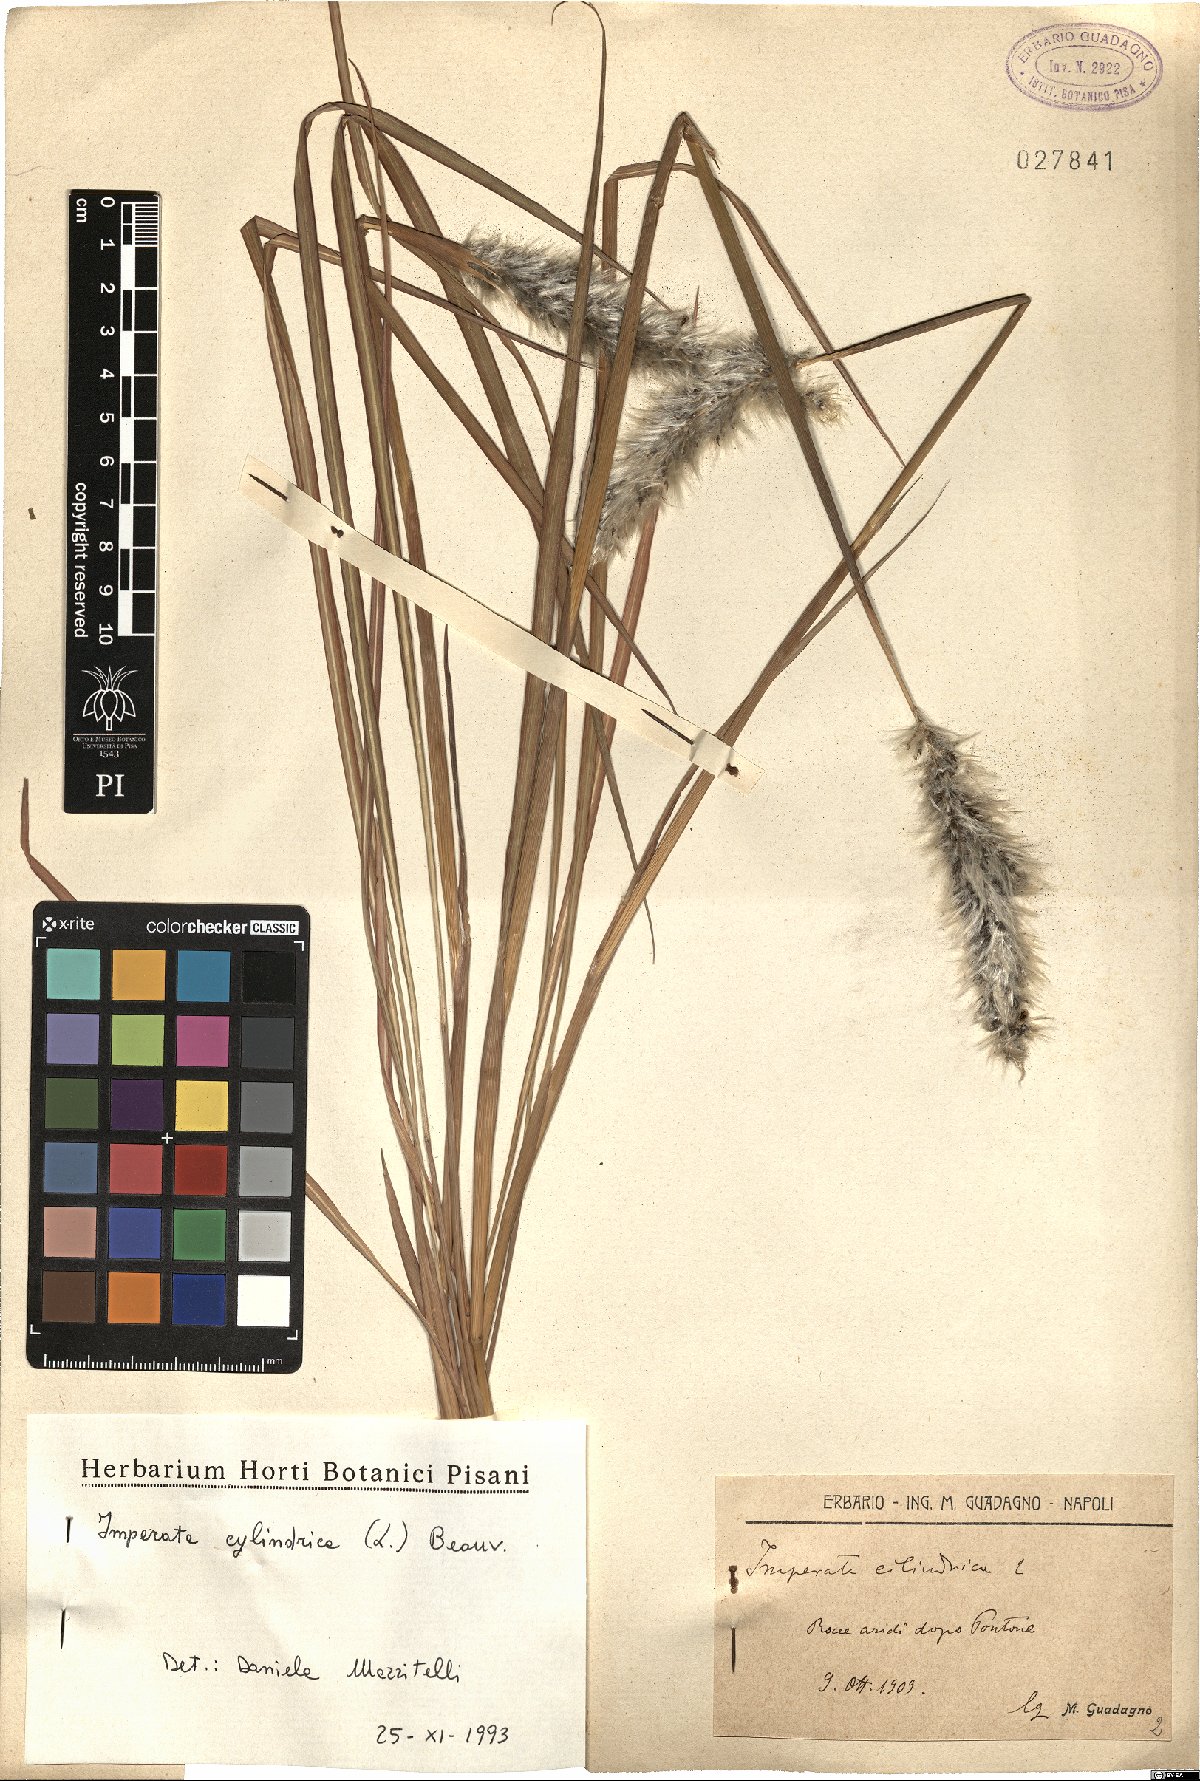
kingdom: Plantae
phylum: Tracheophyta
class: Liliopsida
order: Poales
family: Poaceae
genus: Imperata
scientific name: Imperata cylindrica
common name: Cogongrass
